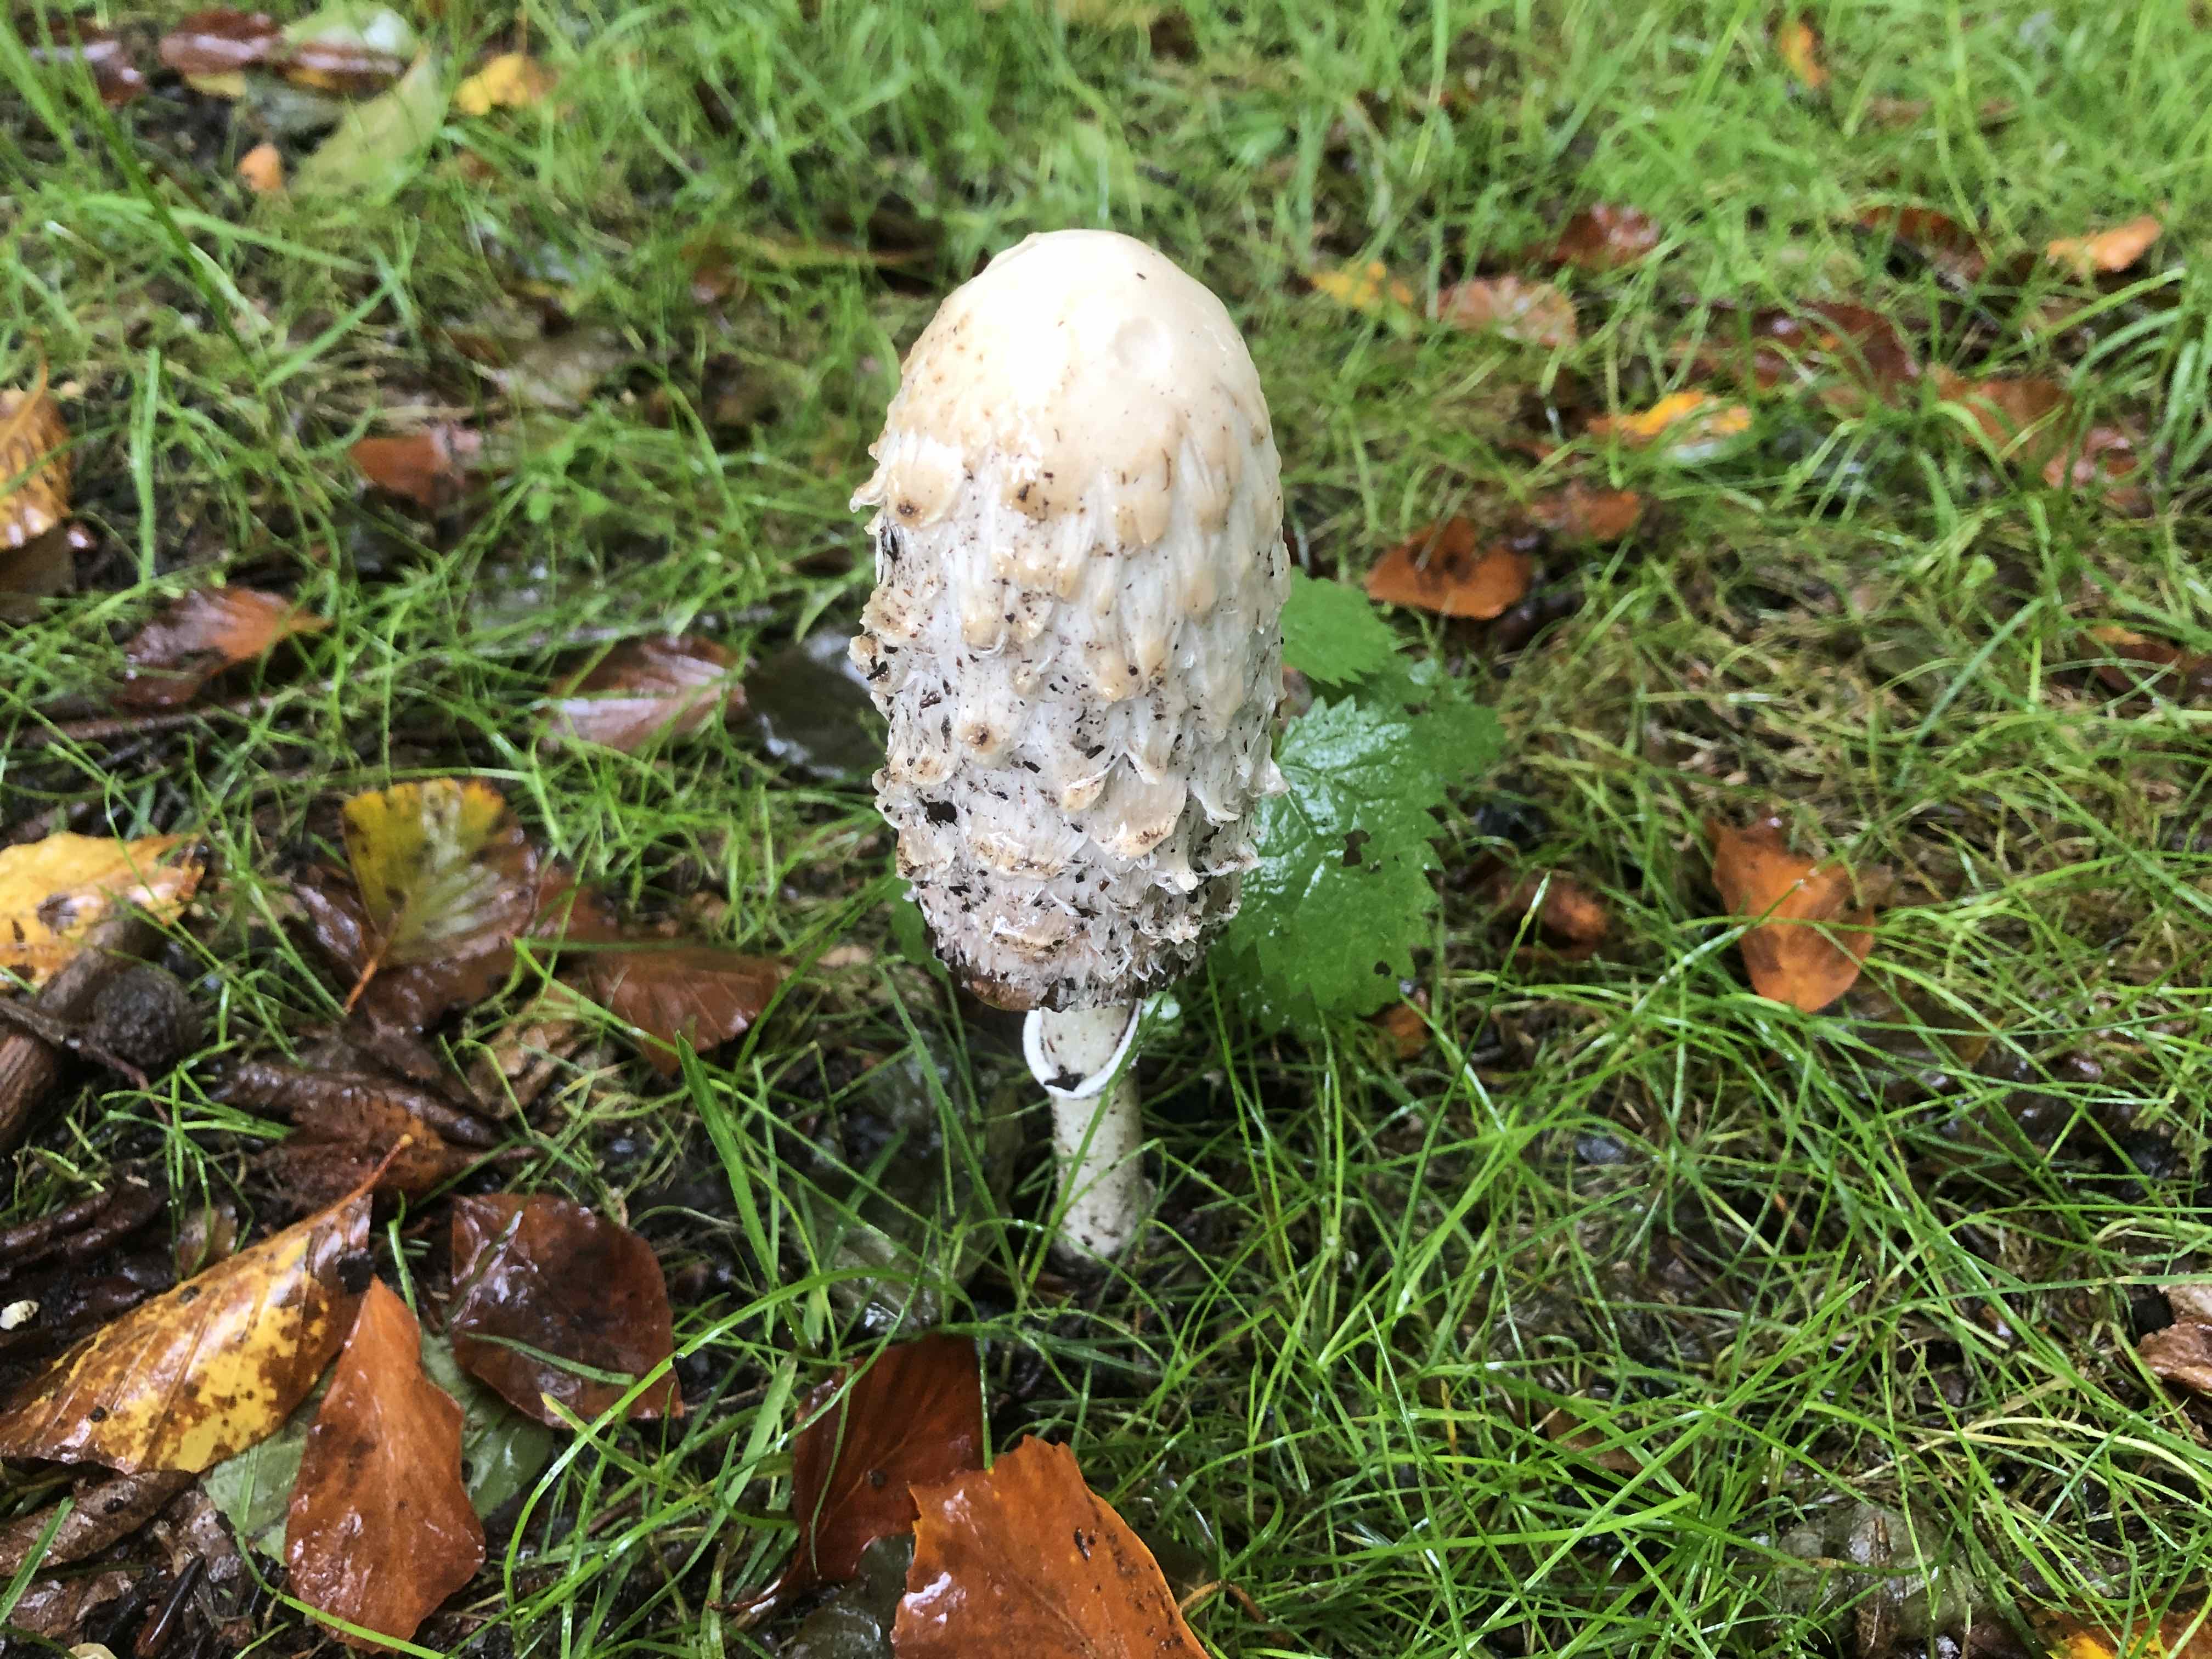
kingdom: Fungi
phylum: Basidiomycota
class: Agaricomycetes
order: Agaricales
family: Agaricaceae
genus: Coprinus
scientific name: Coprinus comatus
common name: stor parykhat
